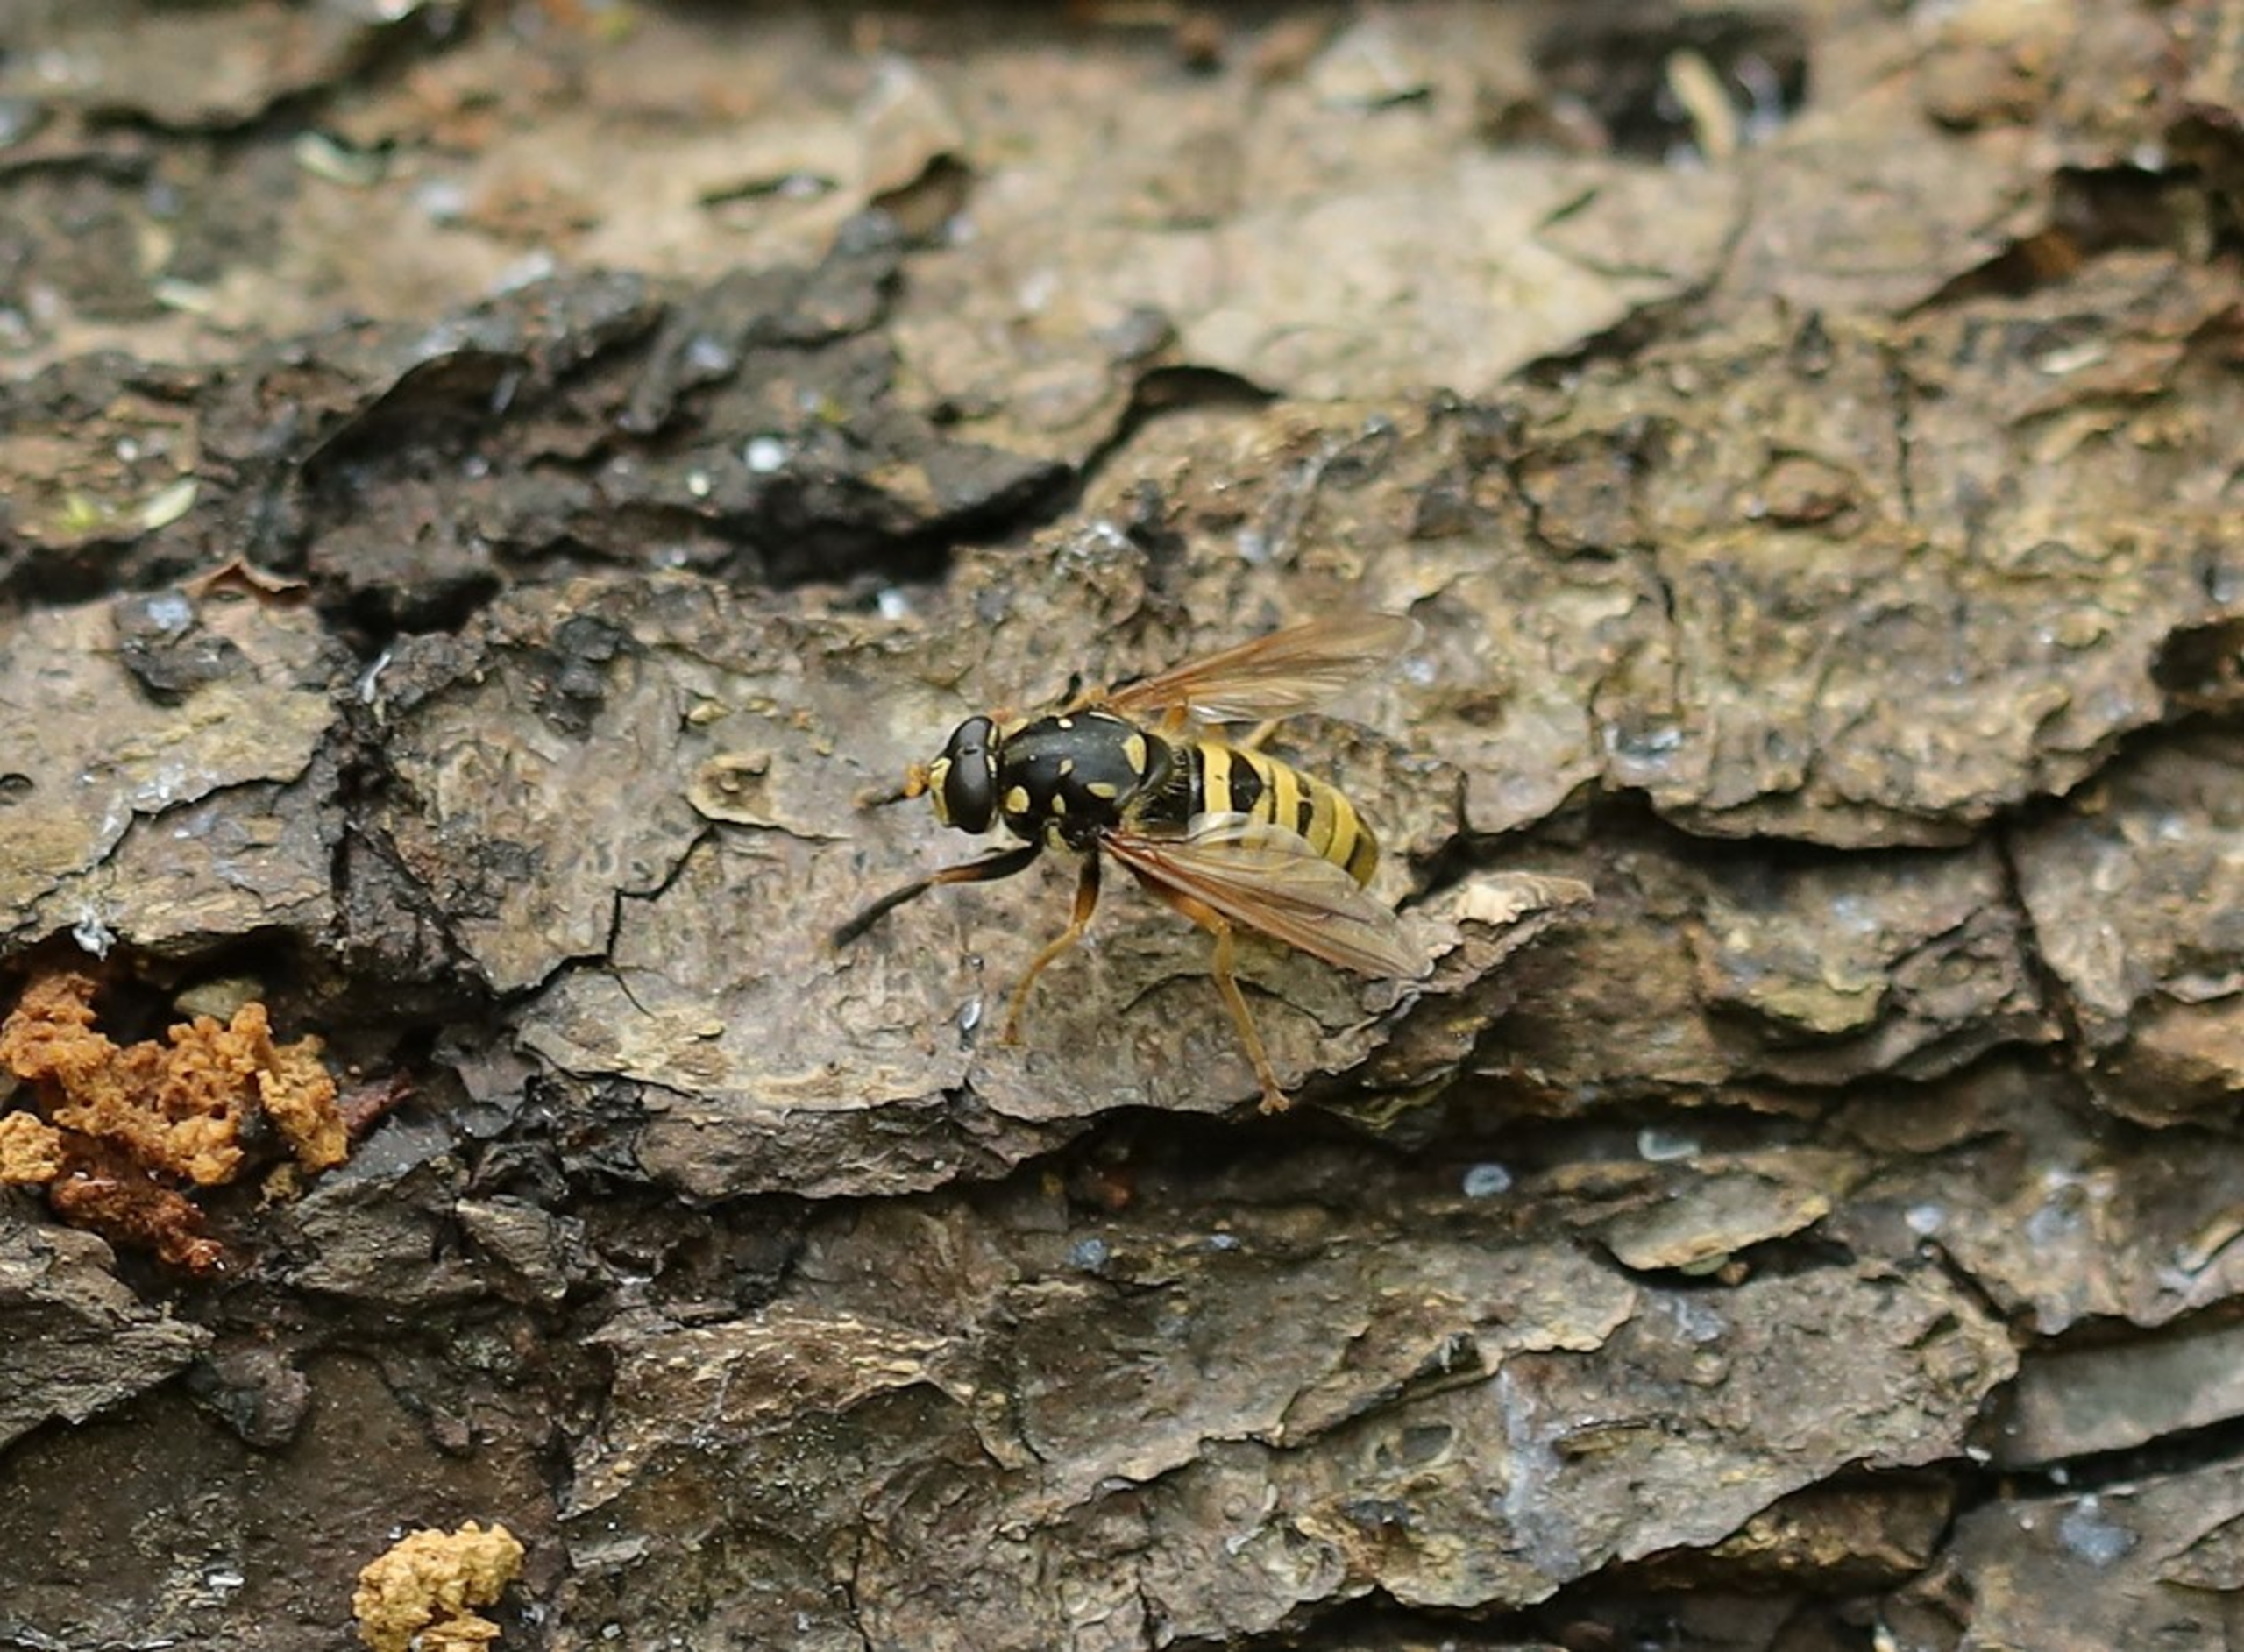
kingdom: Animalia
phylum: Arthropoda
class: Insecta
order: Diptera
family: Syrphidae
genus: Temnostoma
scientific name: Temnostoma meridionale
